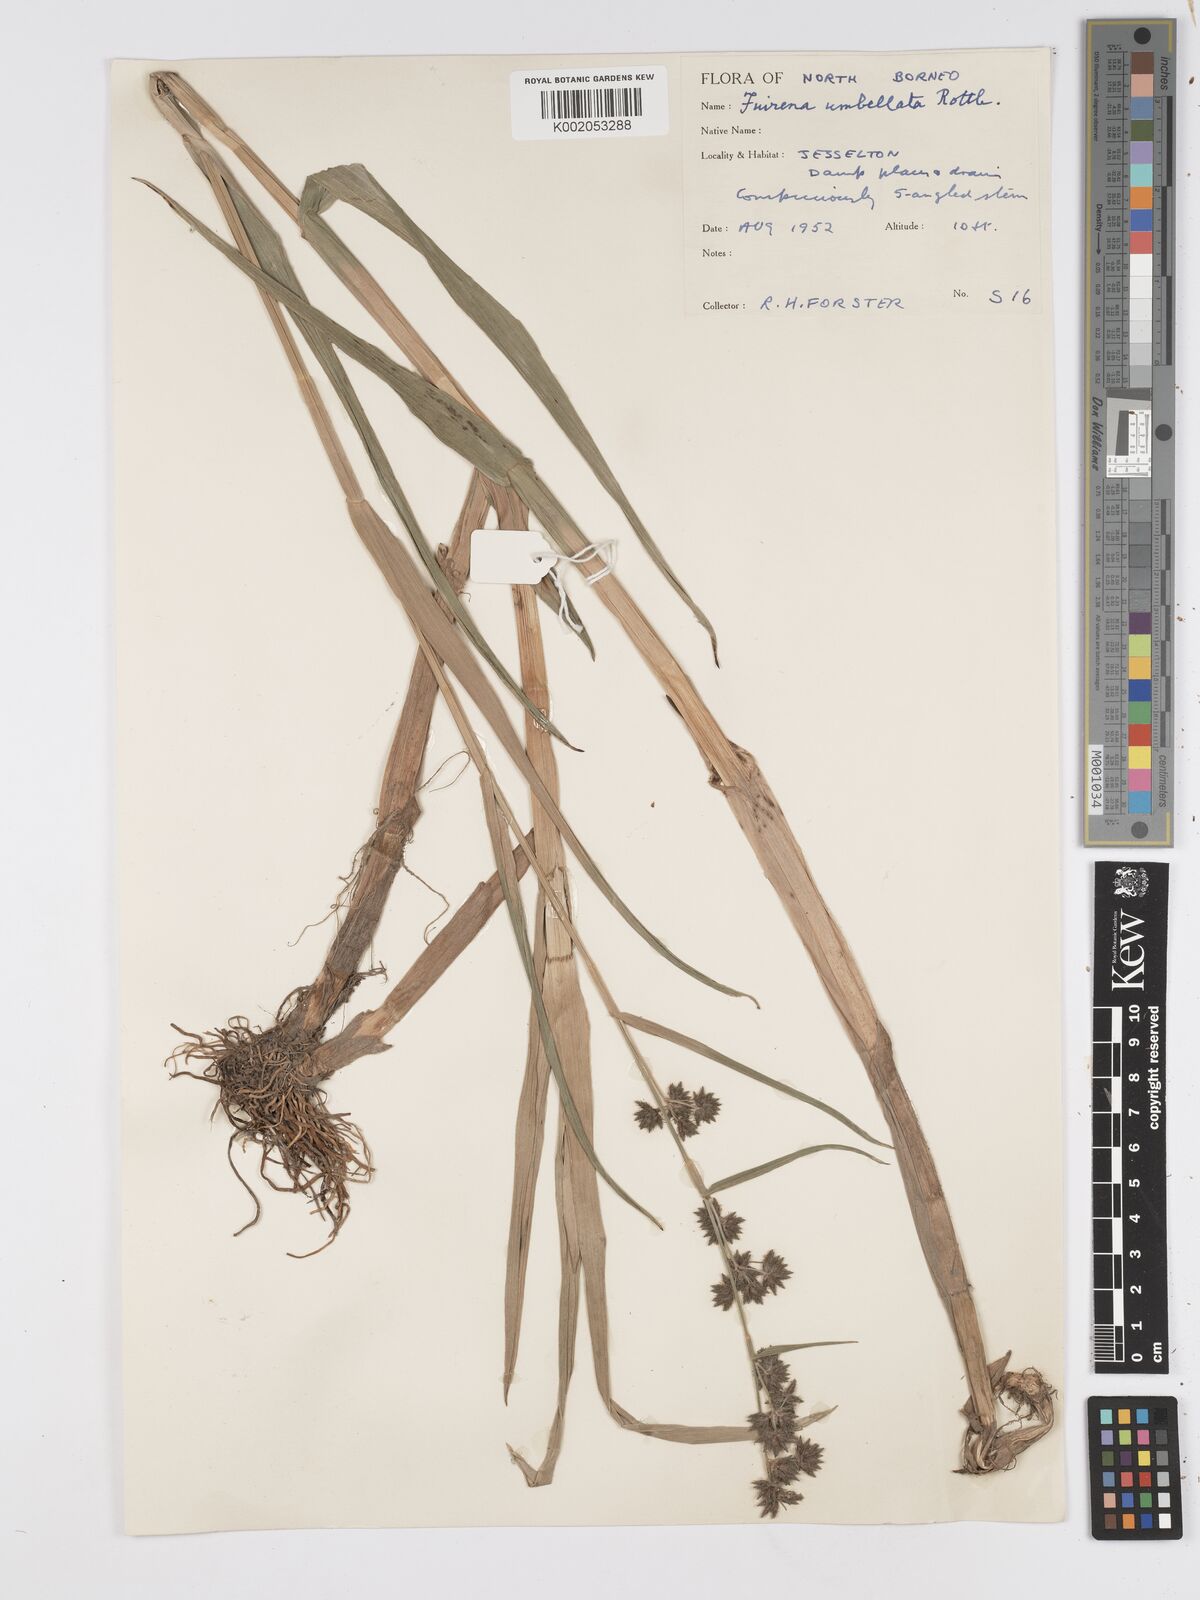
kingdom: Plantae
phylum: Tracheophyta
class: Liliopsida
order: Poales
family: Cyperaceae
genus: Fuirena
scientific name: Fuirena umbellata
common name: Yefen
